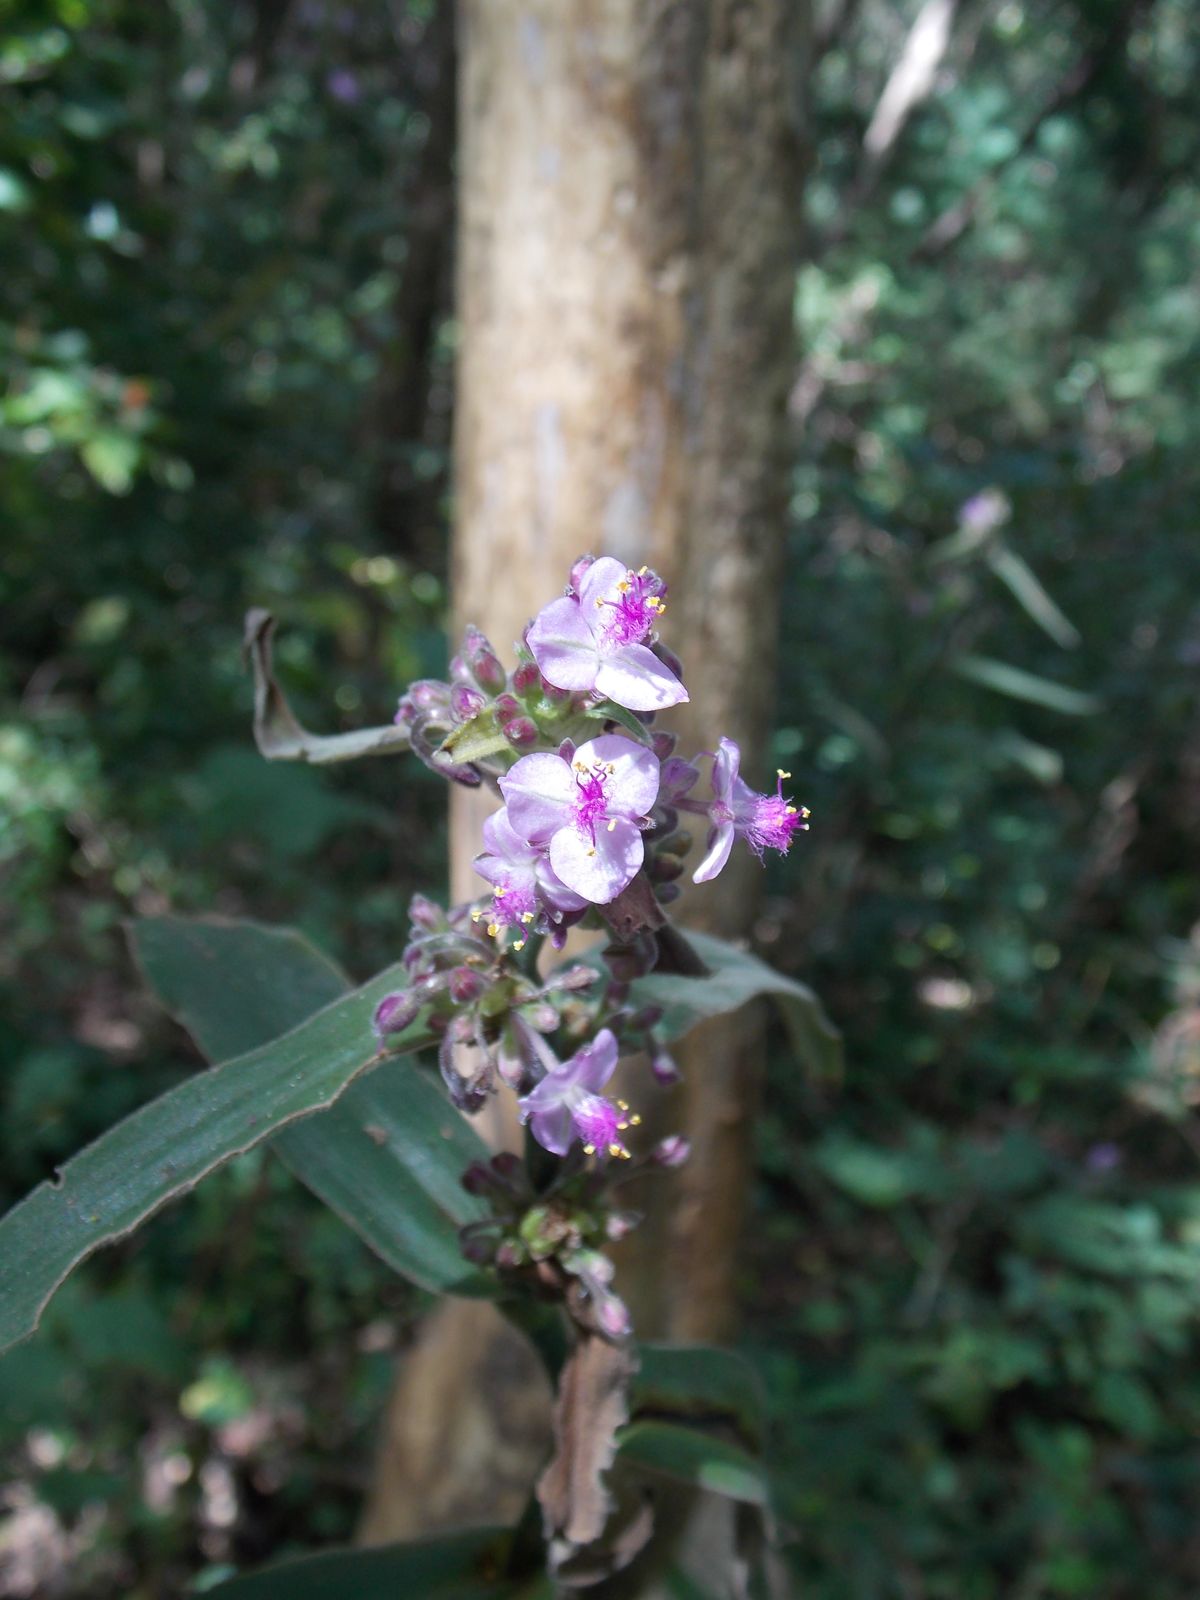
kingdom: Plantae
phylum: Tracheophyta
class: Liliopsida
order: Commelinales
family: Commelinaceae
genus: Tradescantia
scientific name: Tradescantia velutina
